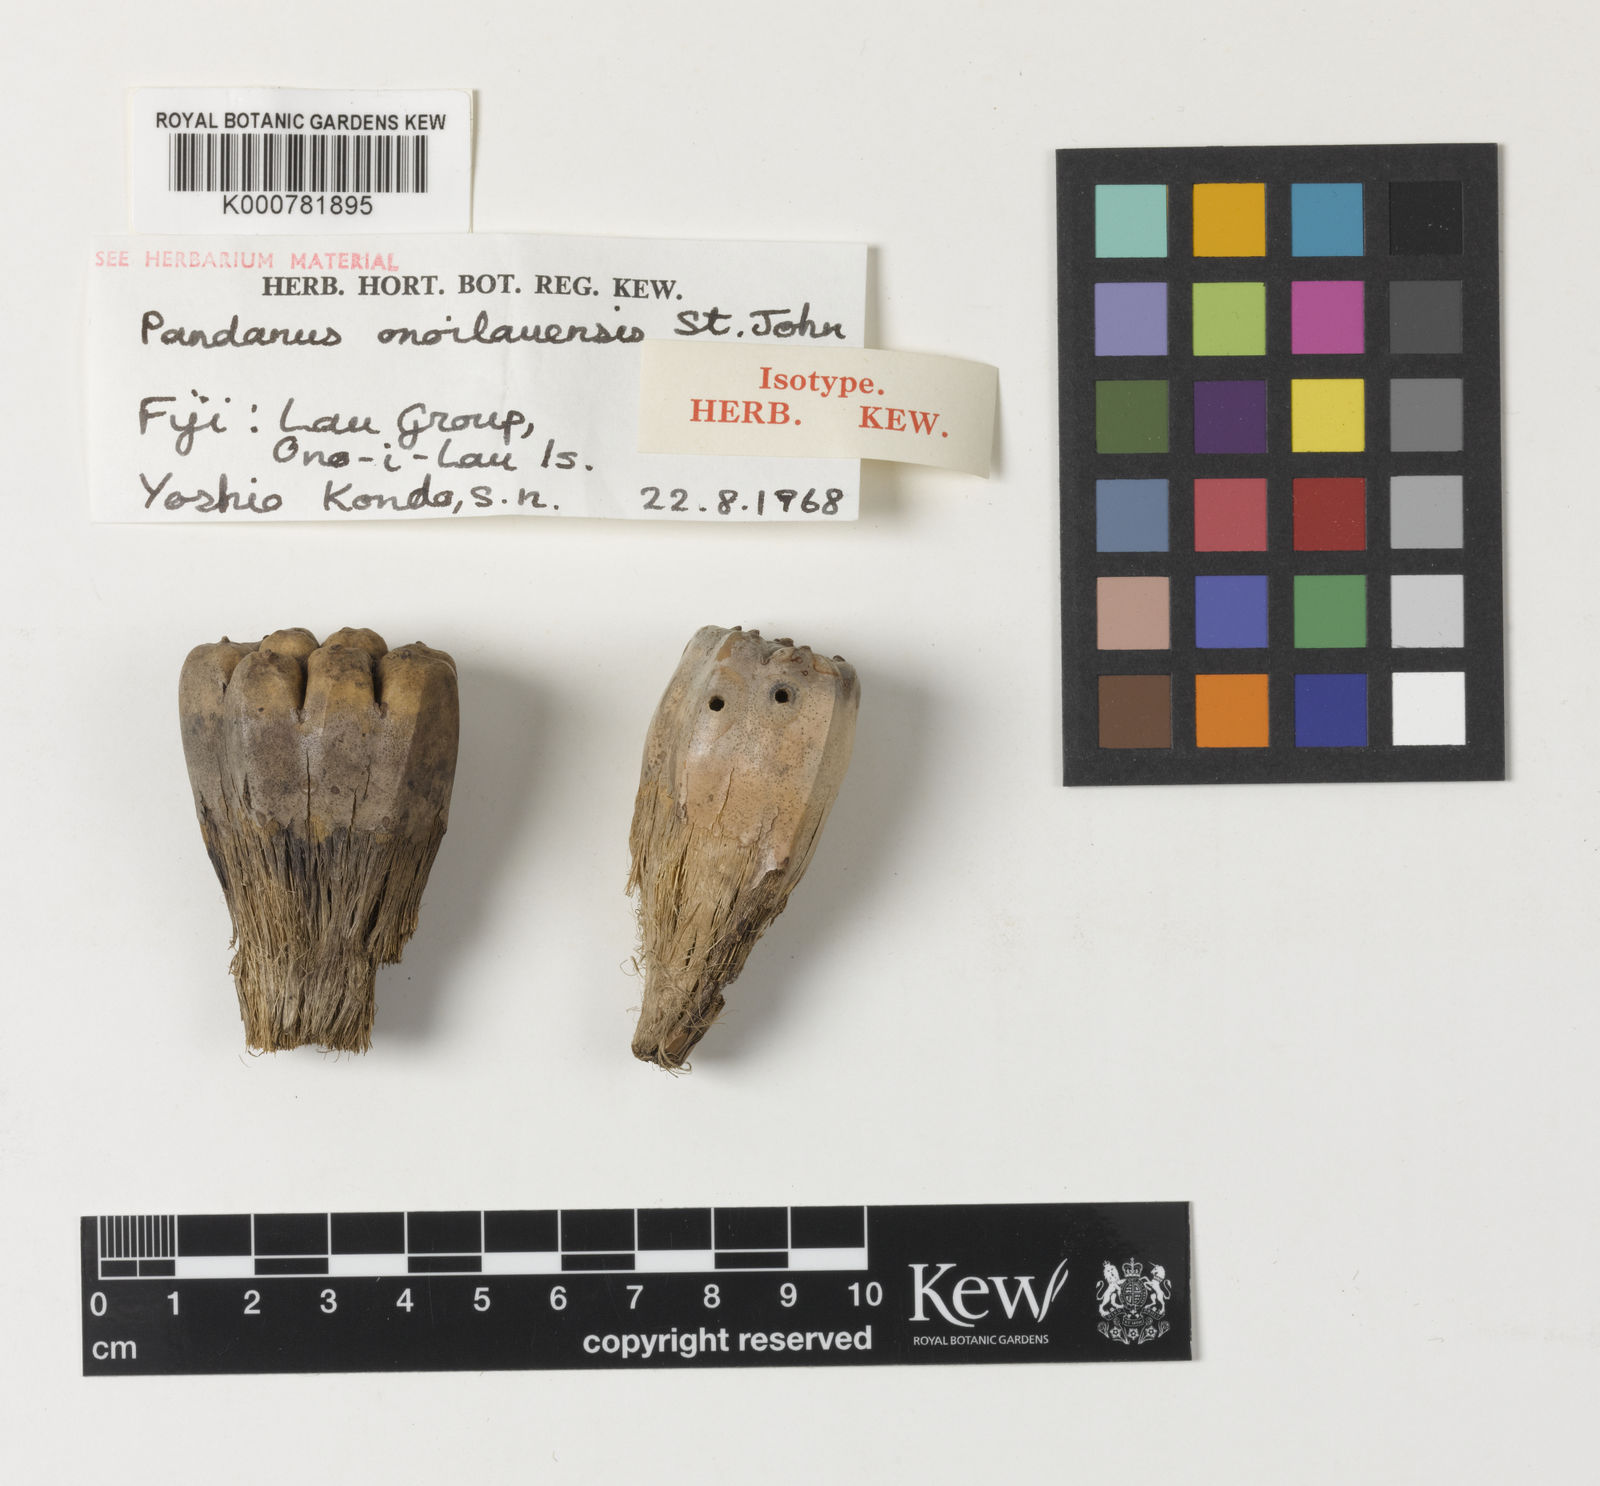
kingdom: Plantae
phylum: Tracheophyta
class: Liliopsida
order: Pandanales
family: Pandanaceae
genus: Pandanus
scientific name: Pandanus tectorius
